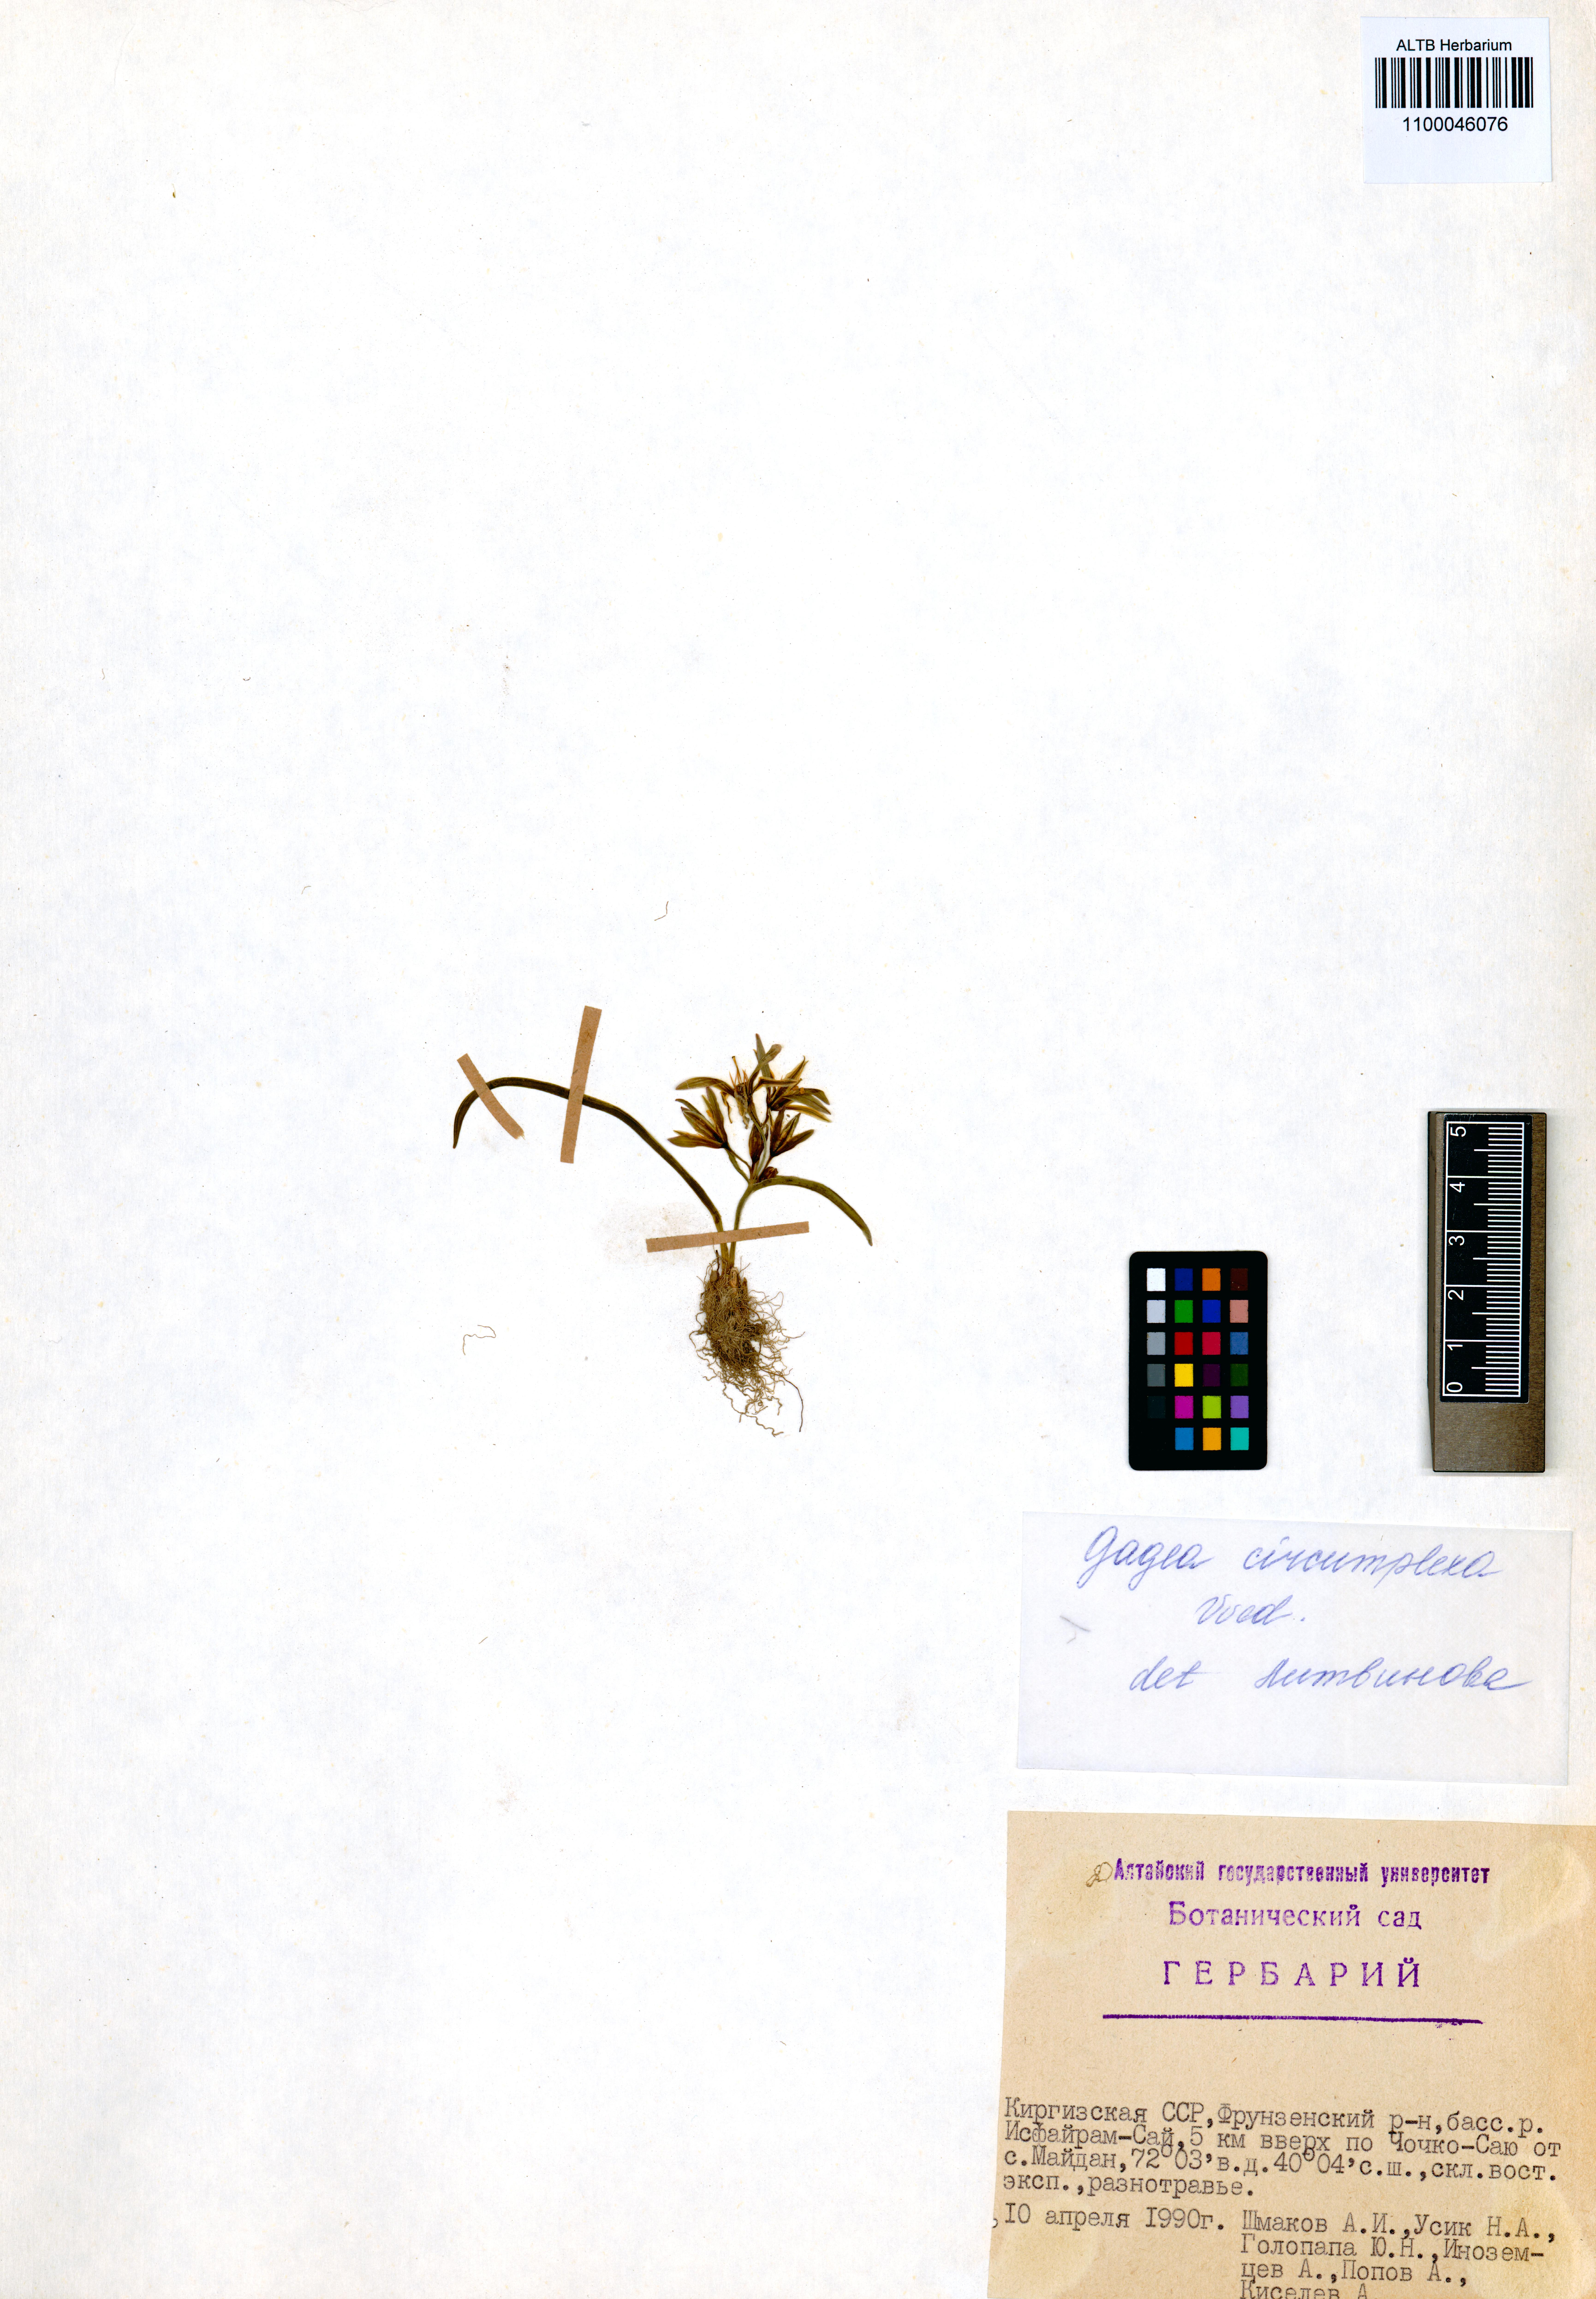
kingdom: Plantae
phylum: Tracheophyta
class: Liliopsida
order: Liliales
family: Liliaceae
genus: Gagea
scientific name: Gagea circumplexa
